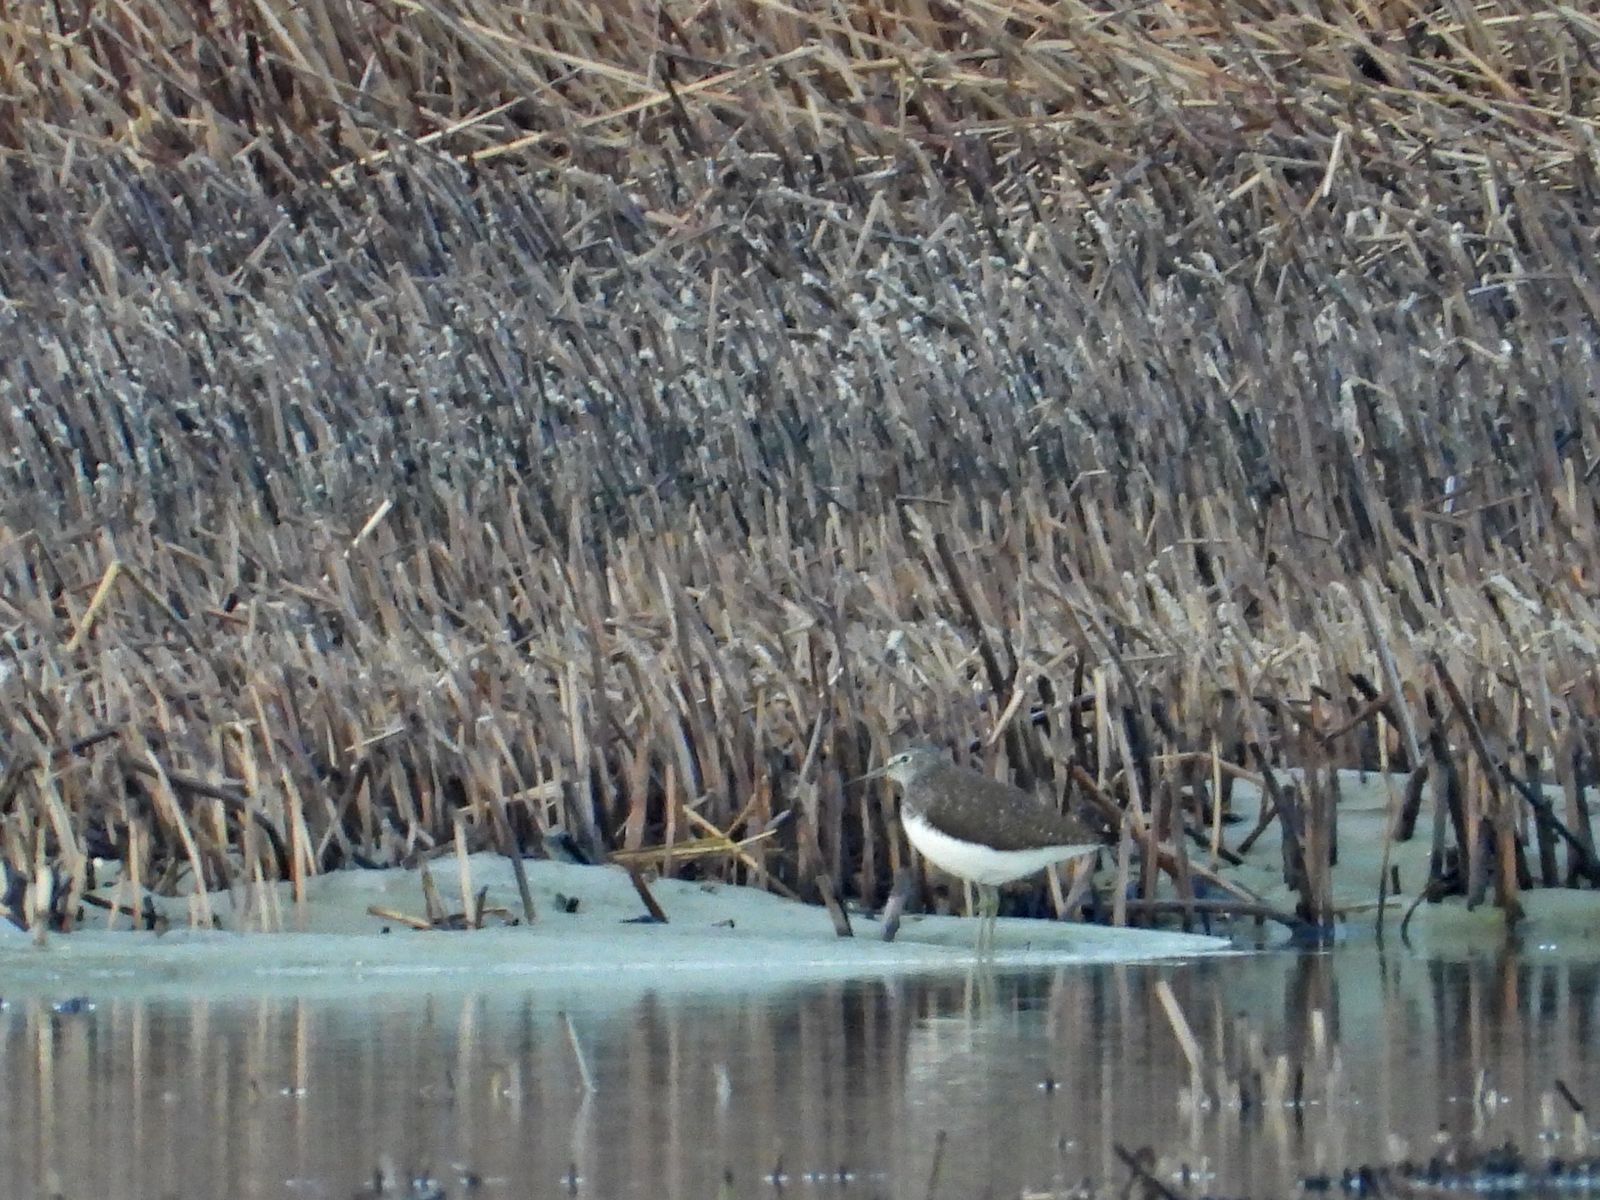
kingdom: Animalia
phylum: Chordata
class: Aves
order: Charadriiformes
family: Scolopacidae
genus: Tringa
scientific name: Tringa ochropus
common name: Green sandpiper
